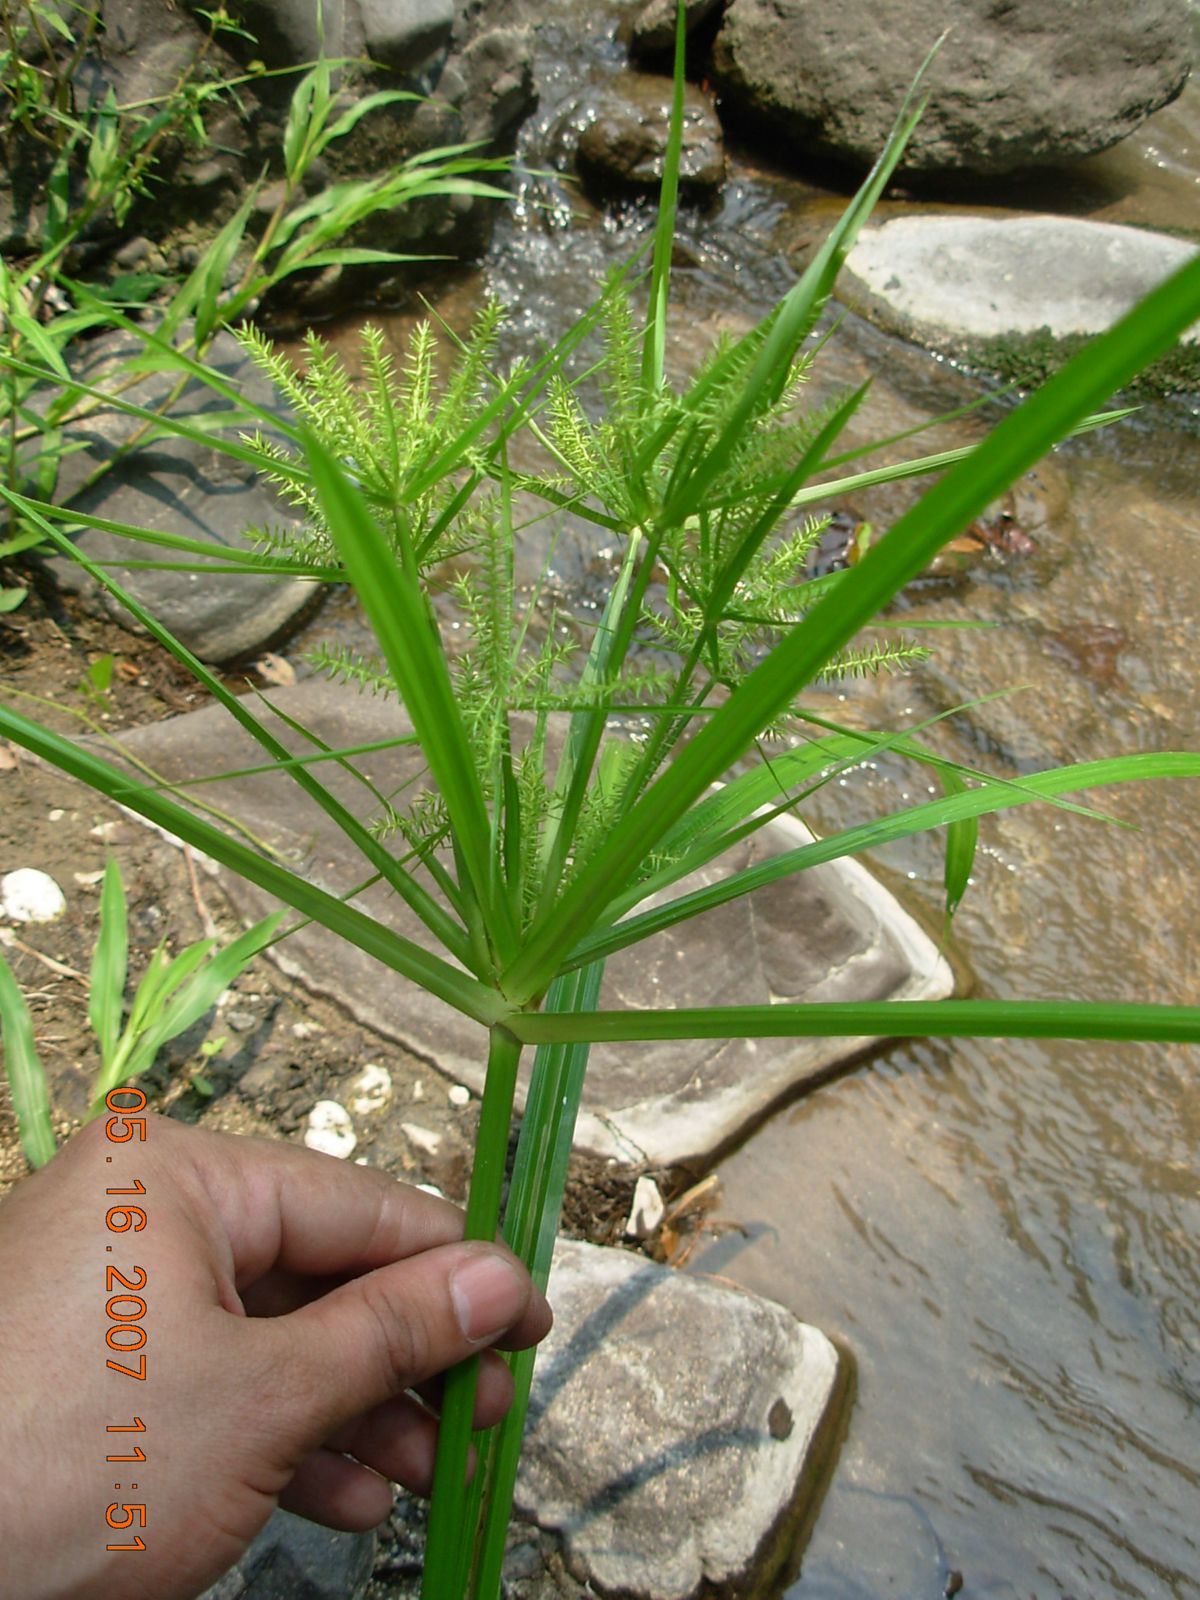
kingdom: Plantae
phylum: Tracheophyta
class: Liliopsida
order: Poales
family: Cyperaceae
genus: Cyperus
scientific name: Cyperus
